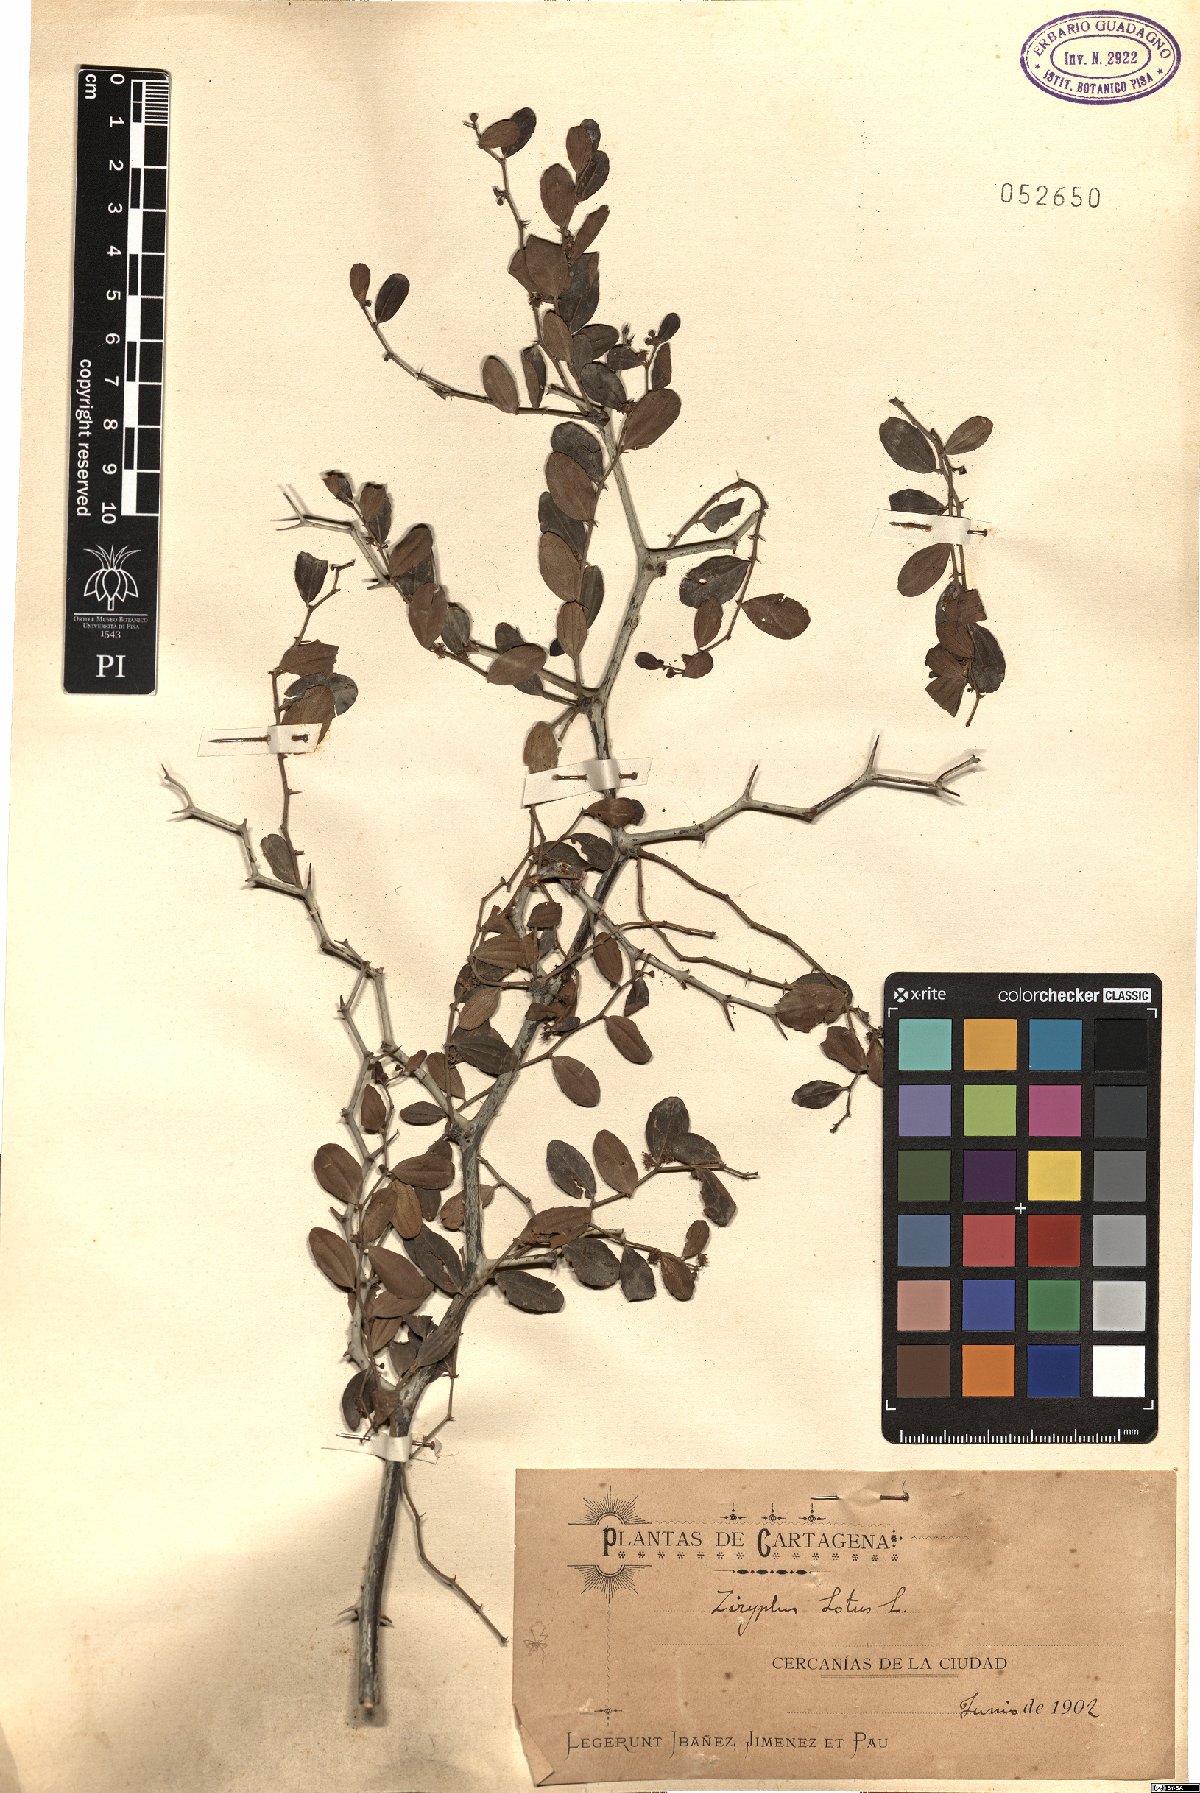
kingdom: Plantae
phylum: Tracheophyta
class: Magnoliopsida
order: Rosales
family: Rhamnaceae
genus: Ziziphus
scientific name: Ziziphus lotus
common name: Lotus
